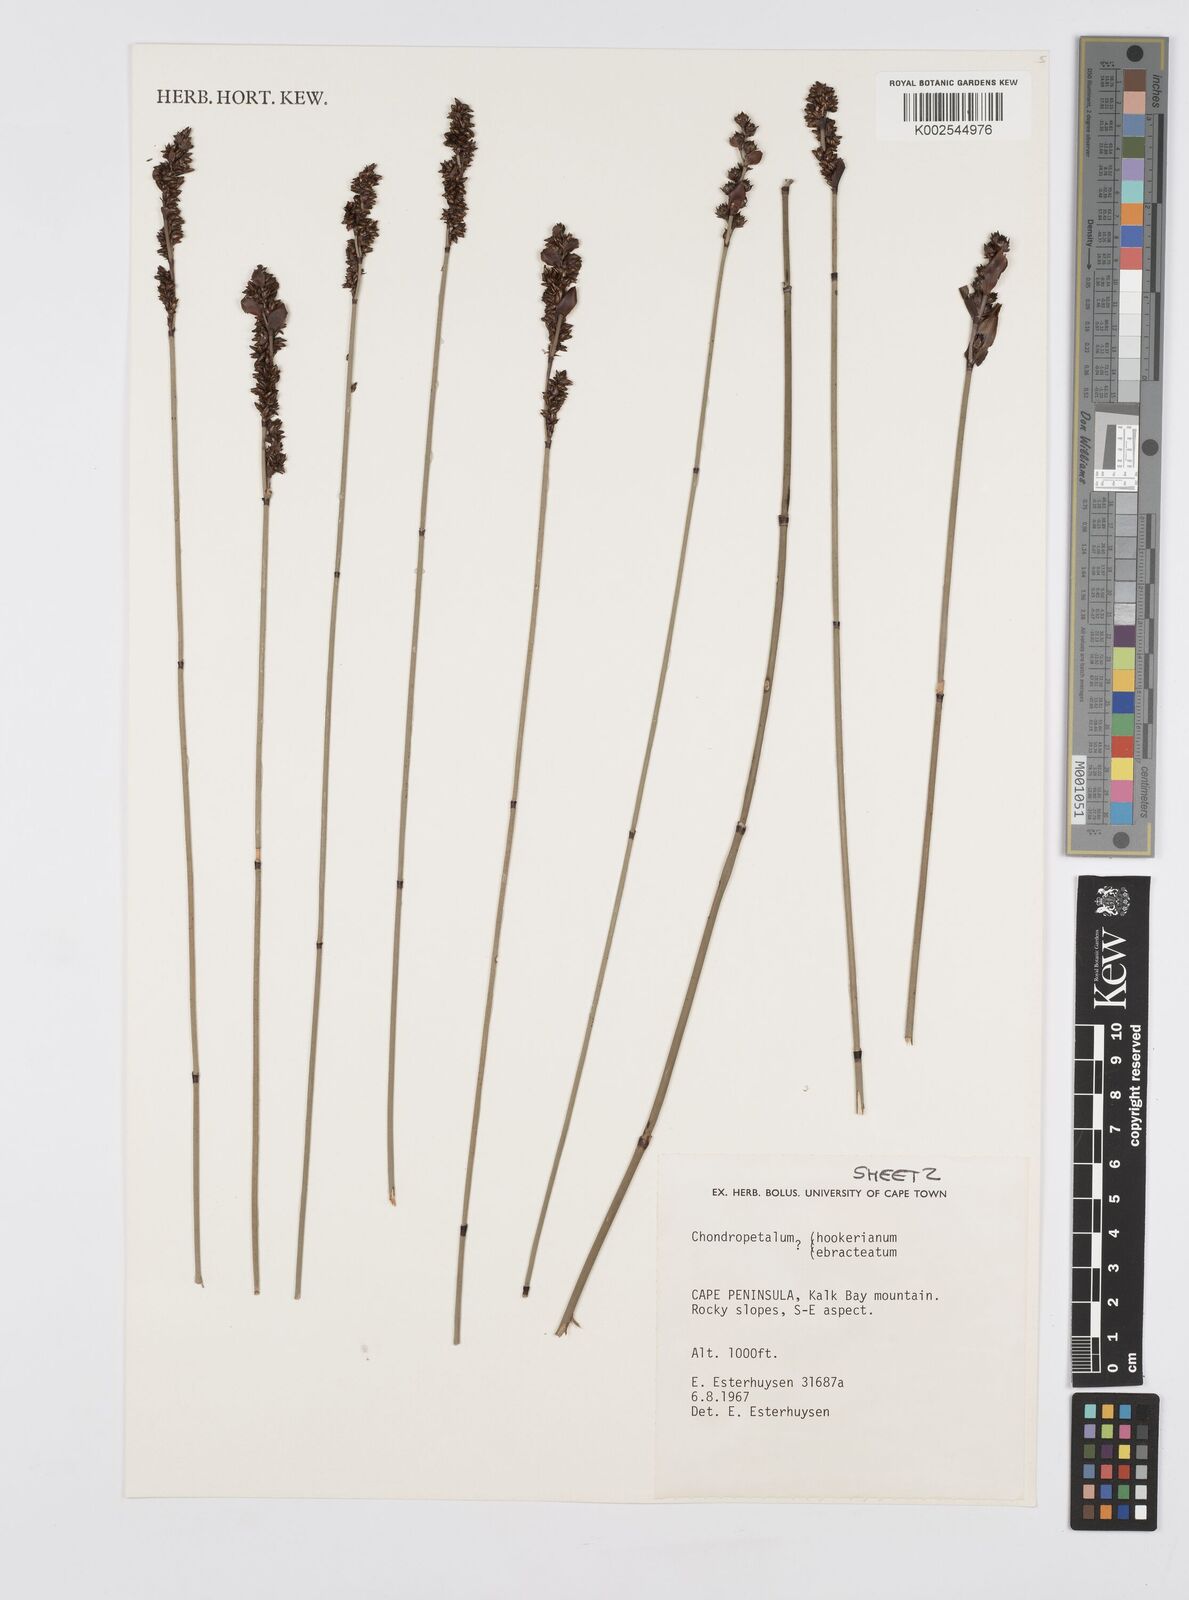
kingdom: Plantae
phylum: Tracheophyta
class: Liliopsida
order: Poales
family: Restionaceae
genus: Elegia
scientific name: Elegia hookeriana
